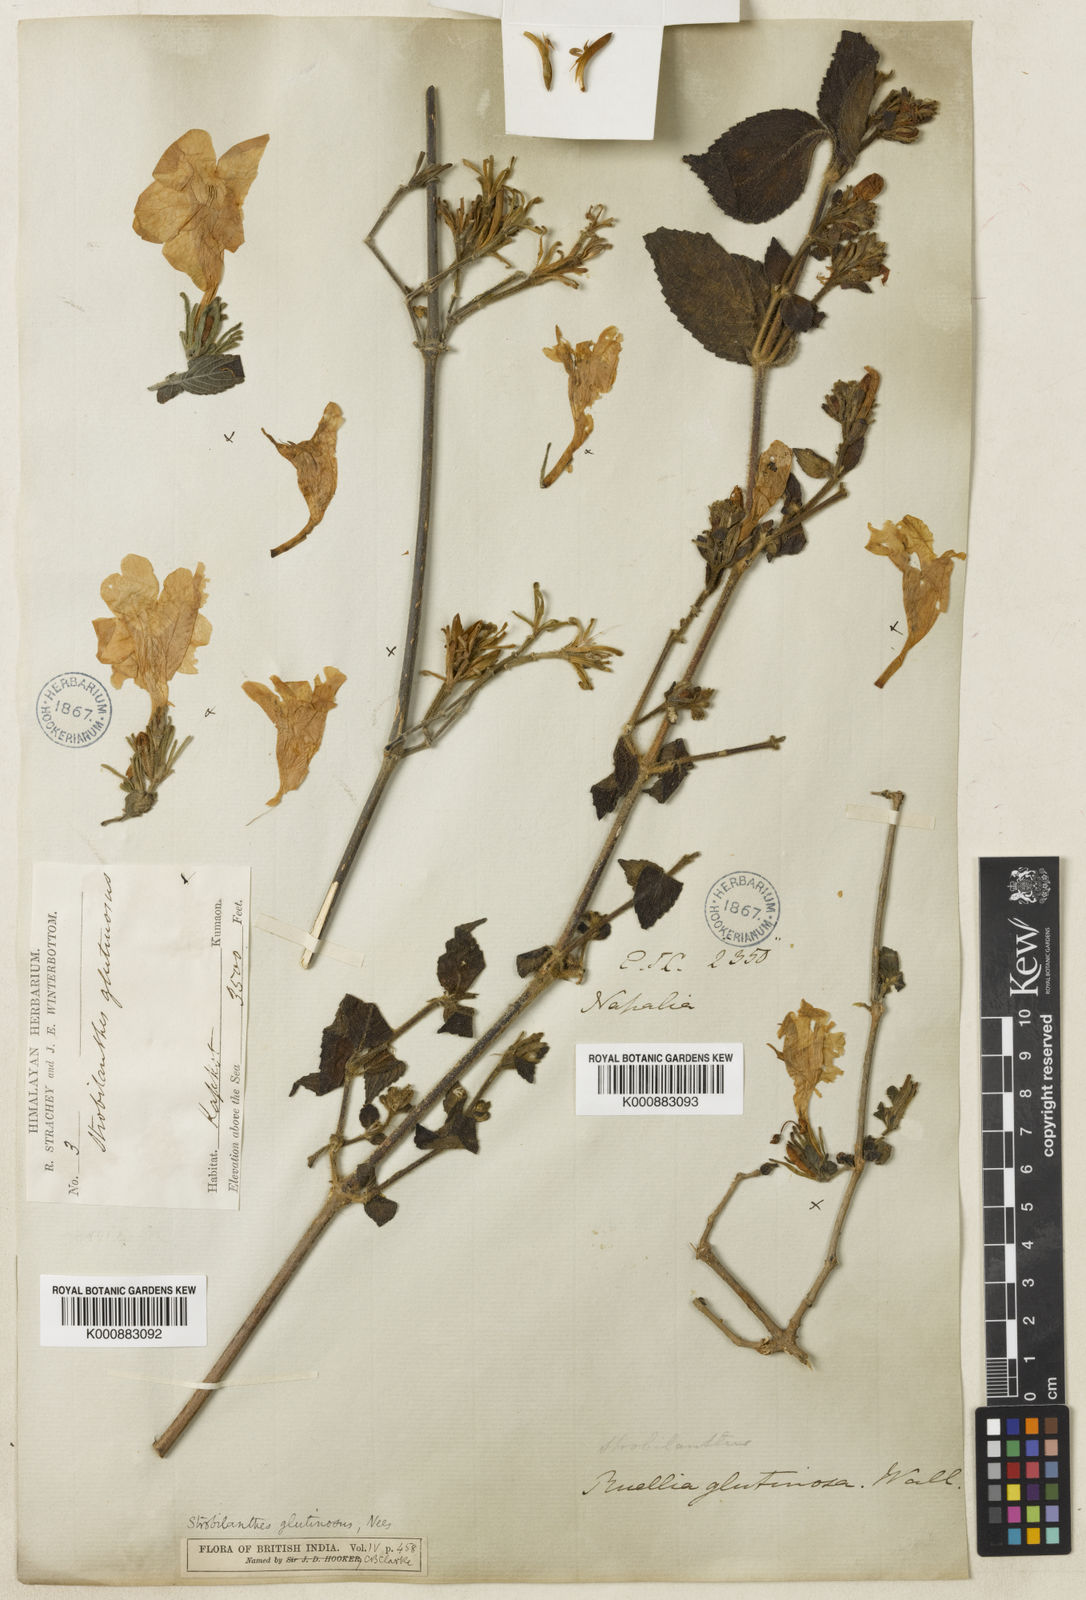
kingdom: Plantae
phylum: Tracheophyta
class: Magnoliopsida
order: Lamiales
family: Acanthaceae
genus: Strobilanthes
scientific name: Strobilanthes glutinosa
